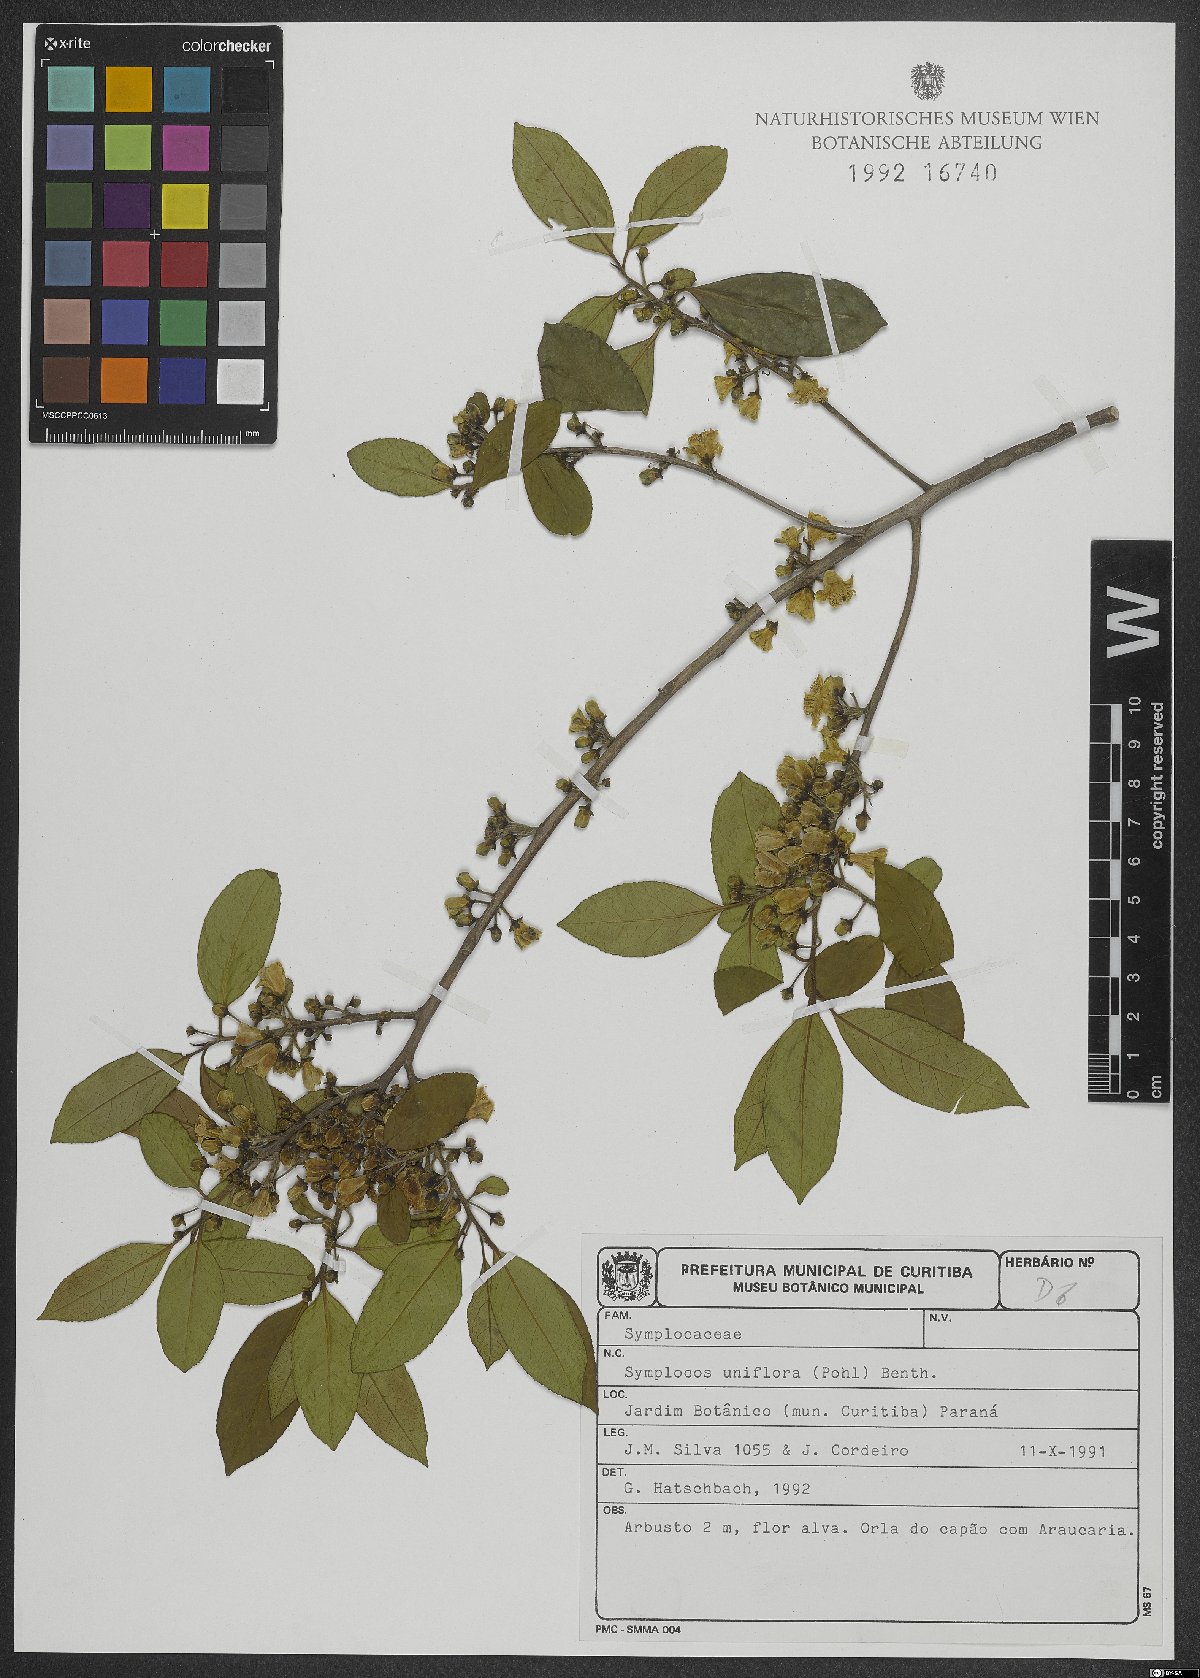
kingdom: Plantae
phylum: Tracheophyta
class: Magnoliopsida
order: Ericales
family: Symplocaceae
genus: Symplocos
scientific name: Symplocos uniflora
